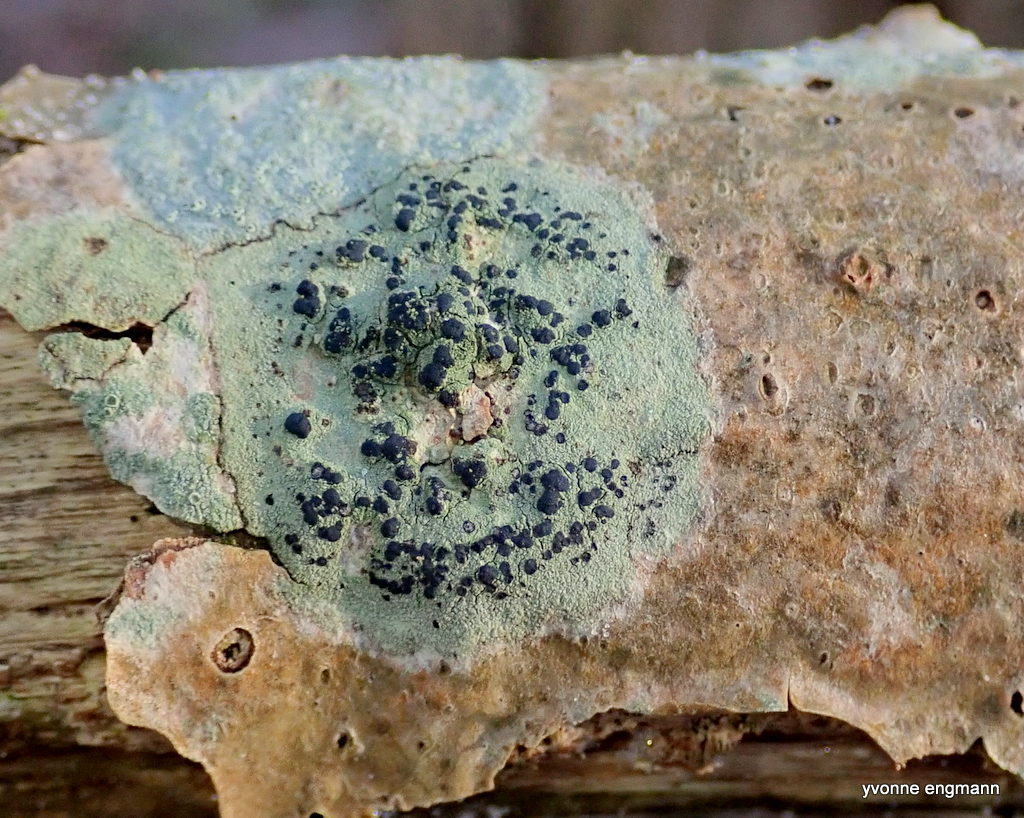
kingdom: Fungi
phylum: Ascomycota
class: Lecanoromycetes
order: Lecanorales
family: Lecanoraceae
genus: Lecidella
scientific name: Lecidella elaeochroma
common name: grågrøn skivelav
